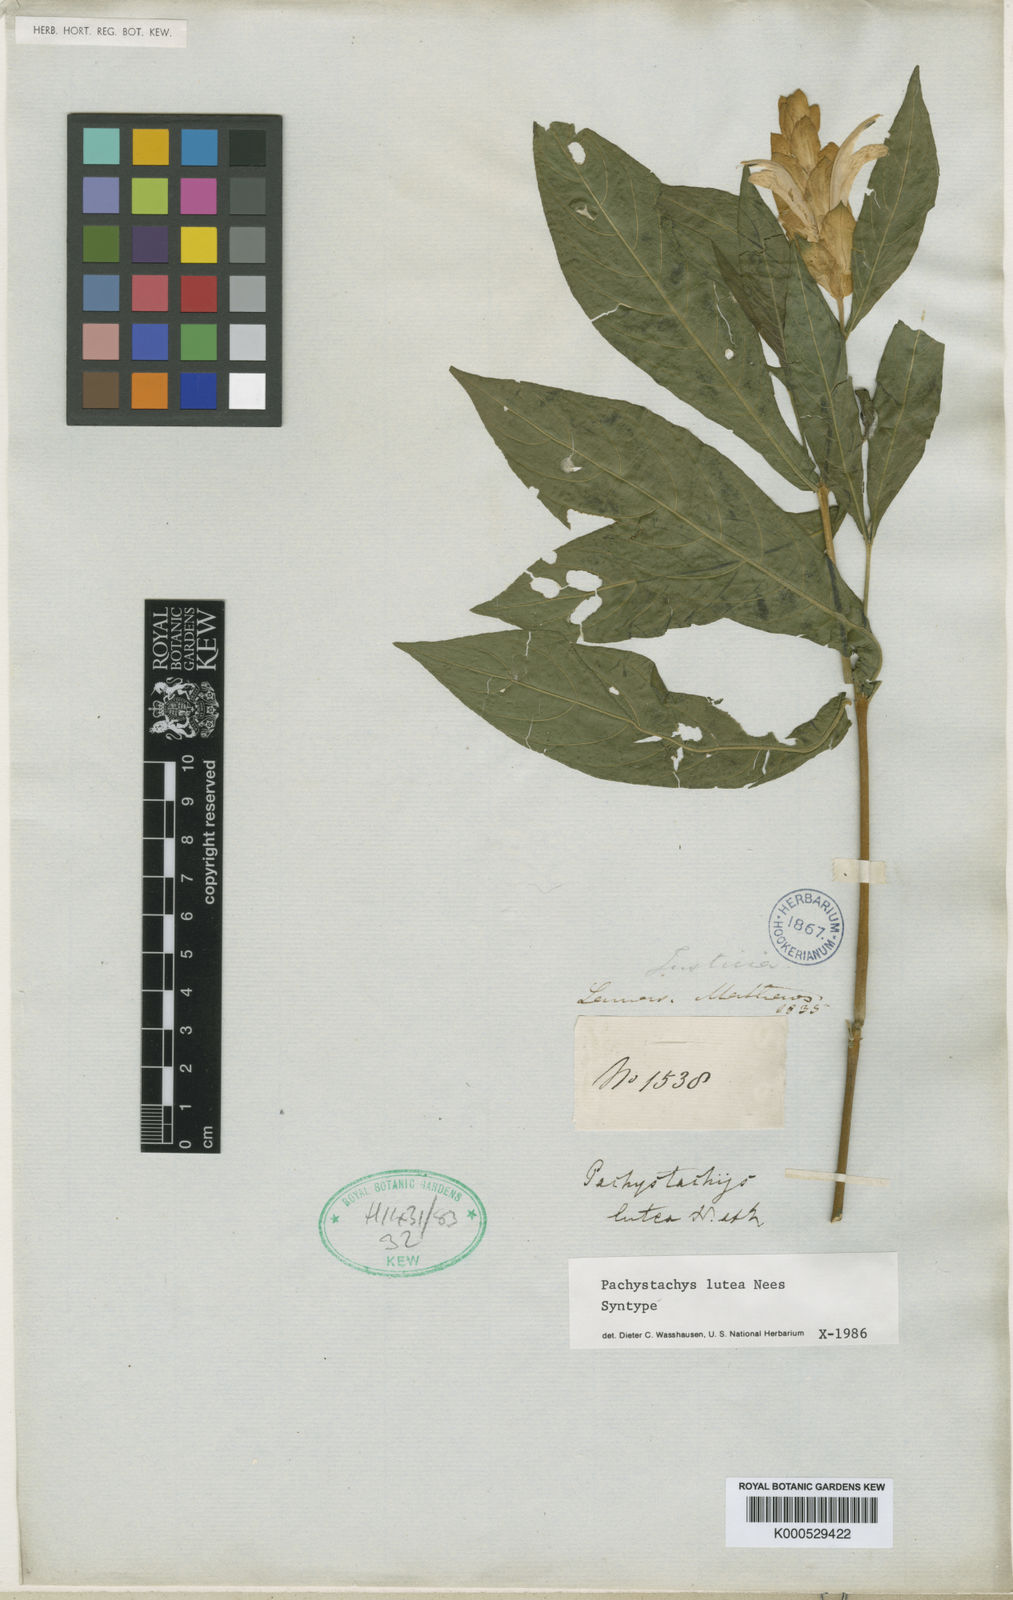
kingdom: Plantae
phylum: Tracheophyta
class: Magnoliopsida
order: Lamiales
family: Acanthaceae
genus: Pachystachys
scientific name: Pachystachys lutea
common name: Golden shrimp-plant
